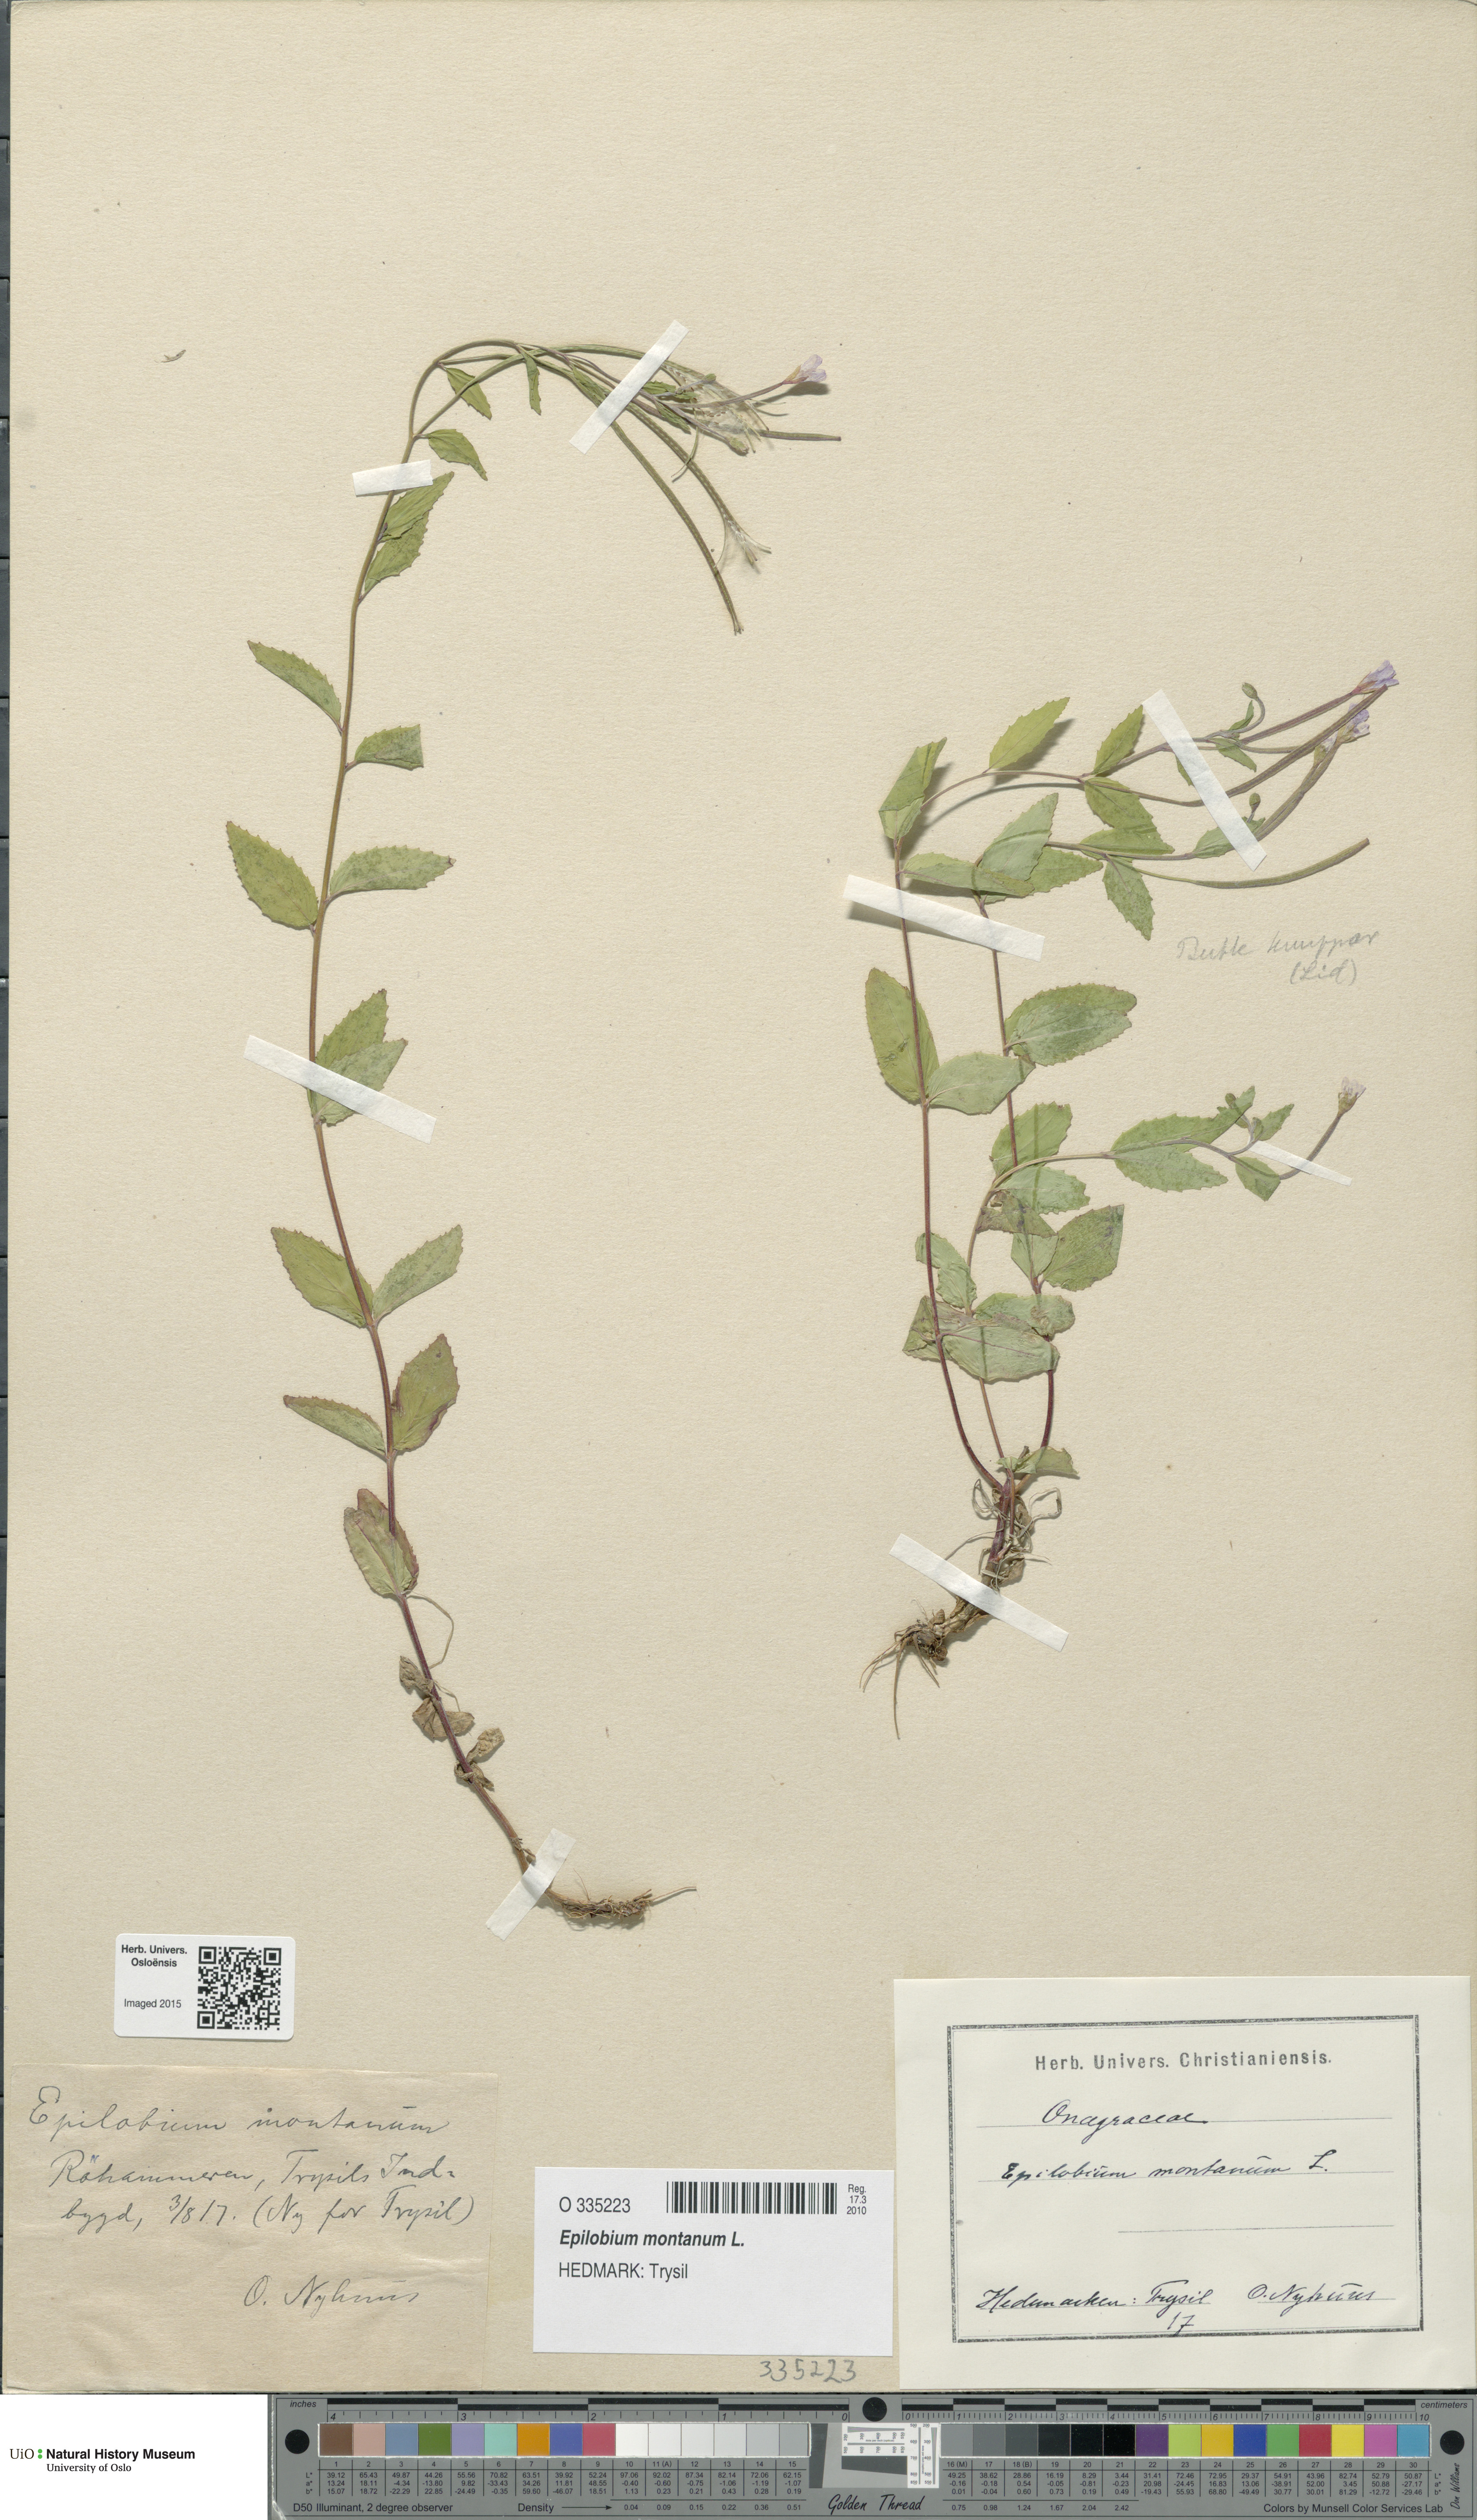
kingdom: Plantae
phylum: Tracheophyta
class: Magnoliopsida
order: Myrtales
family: Onagraceae
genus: Epilobium
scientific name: Epilobium montanum
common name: Broad-leaved willowherb
